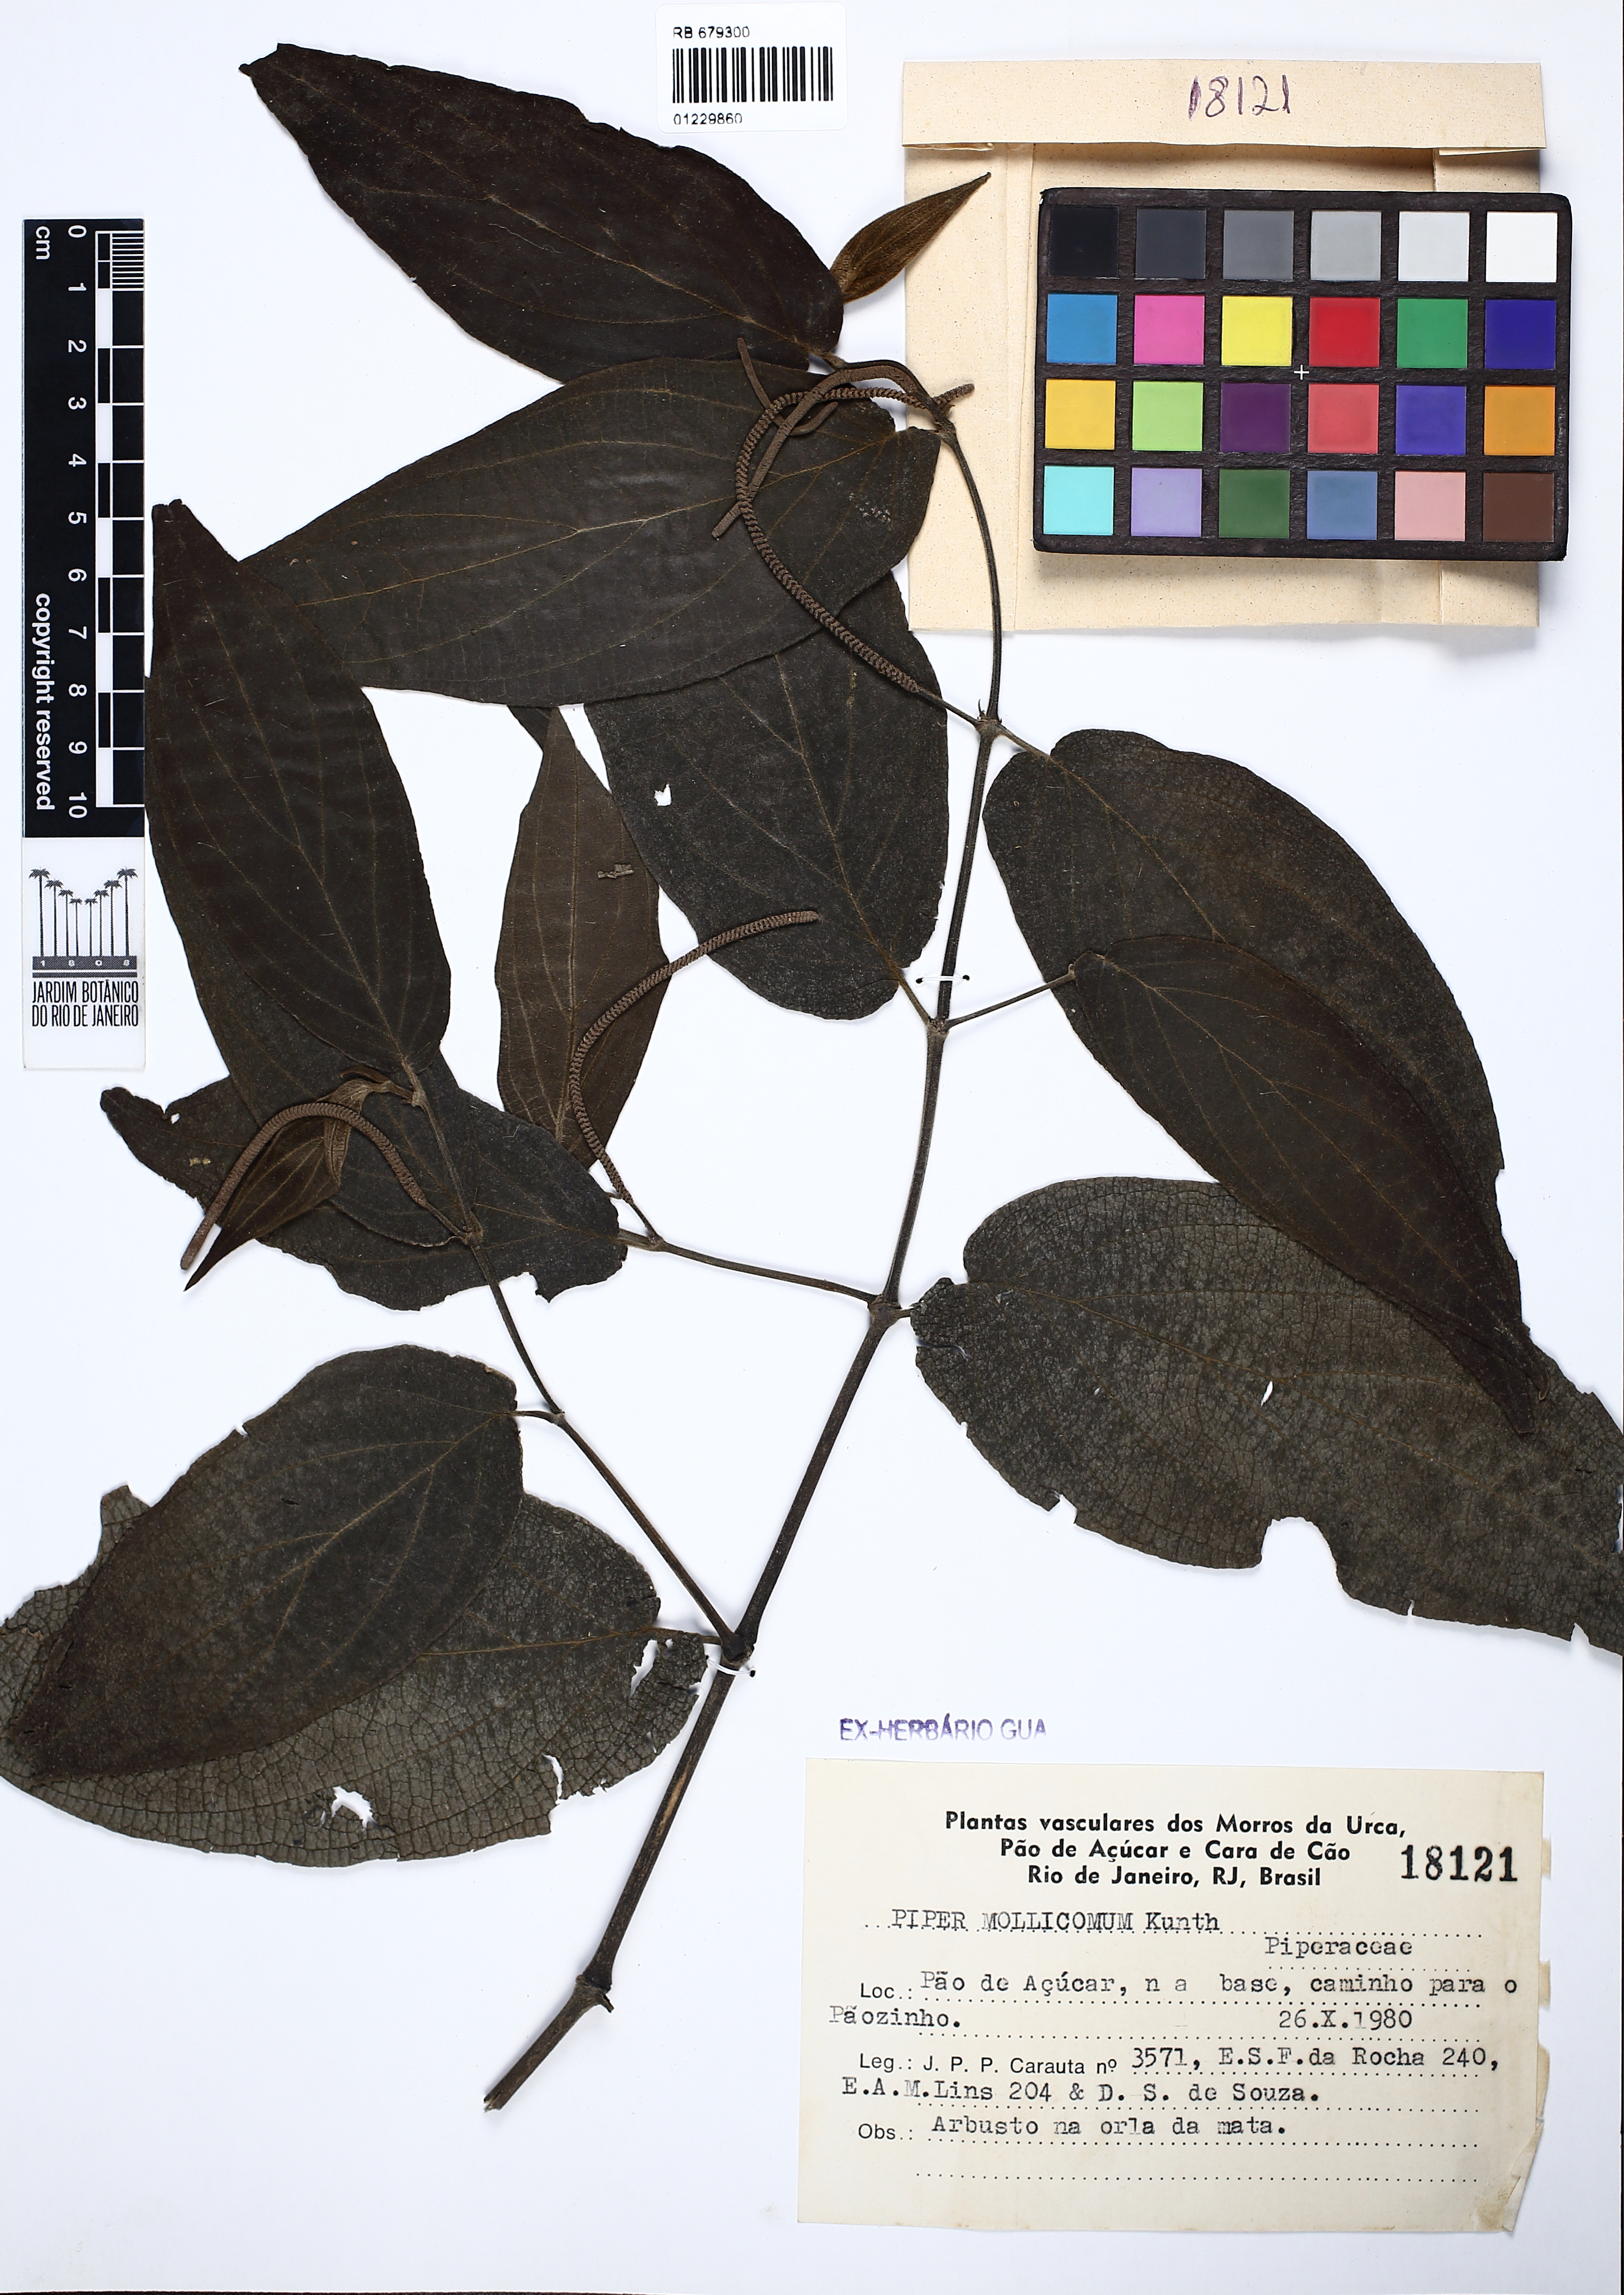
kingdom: Plantae
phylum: Tracheophyta
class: Magnoliopsida
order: Piperales
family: Piperaceae
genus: Piper
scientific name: Piper mollicomum
